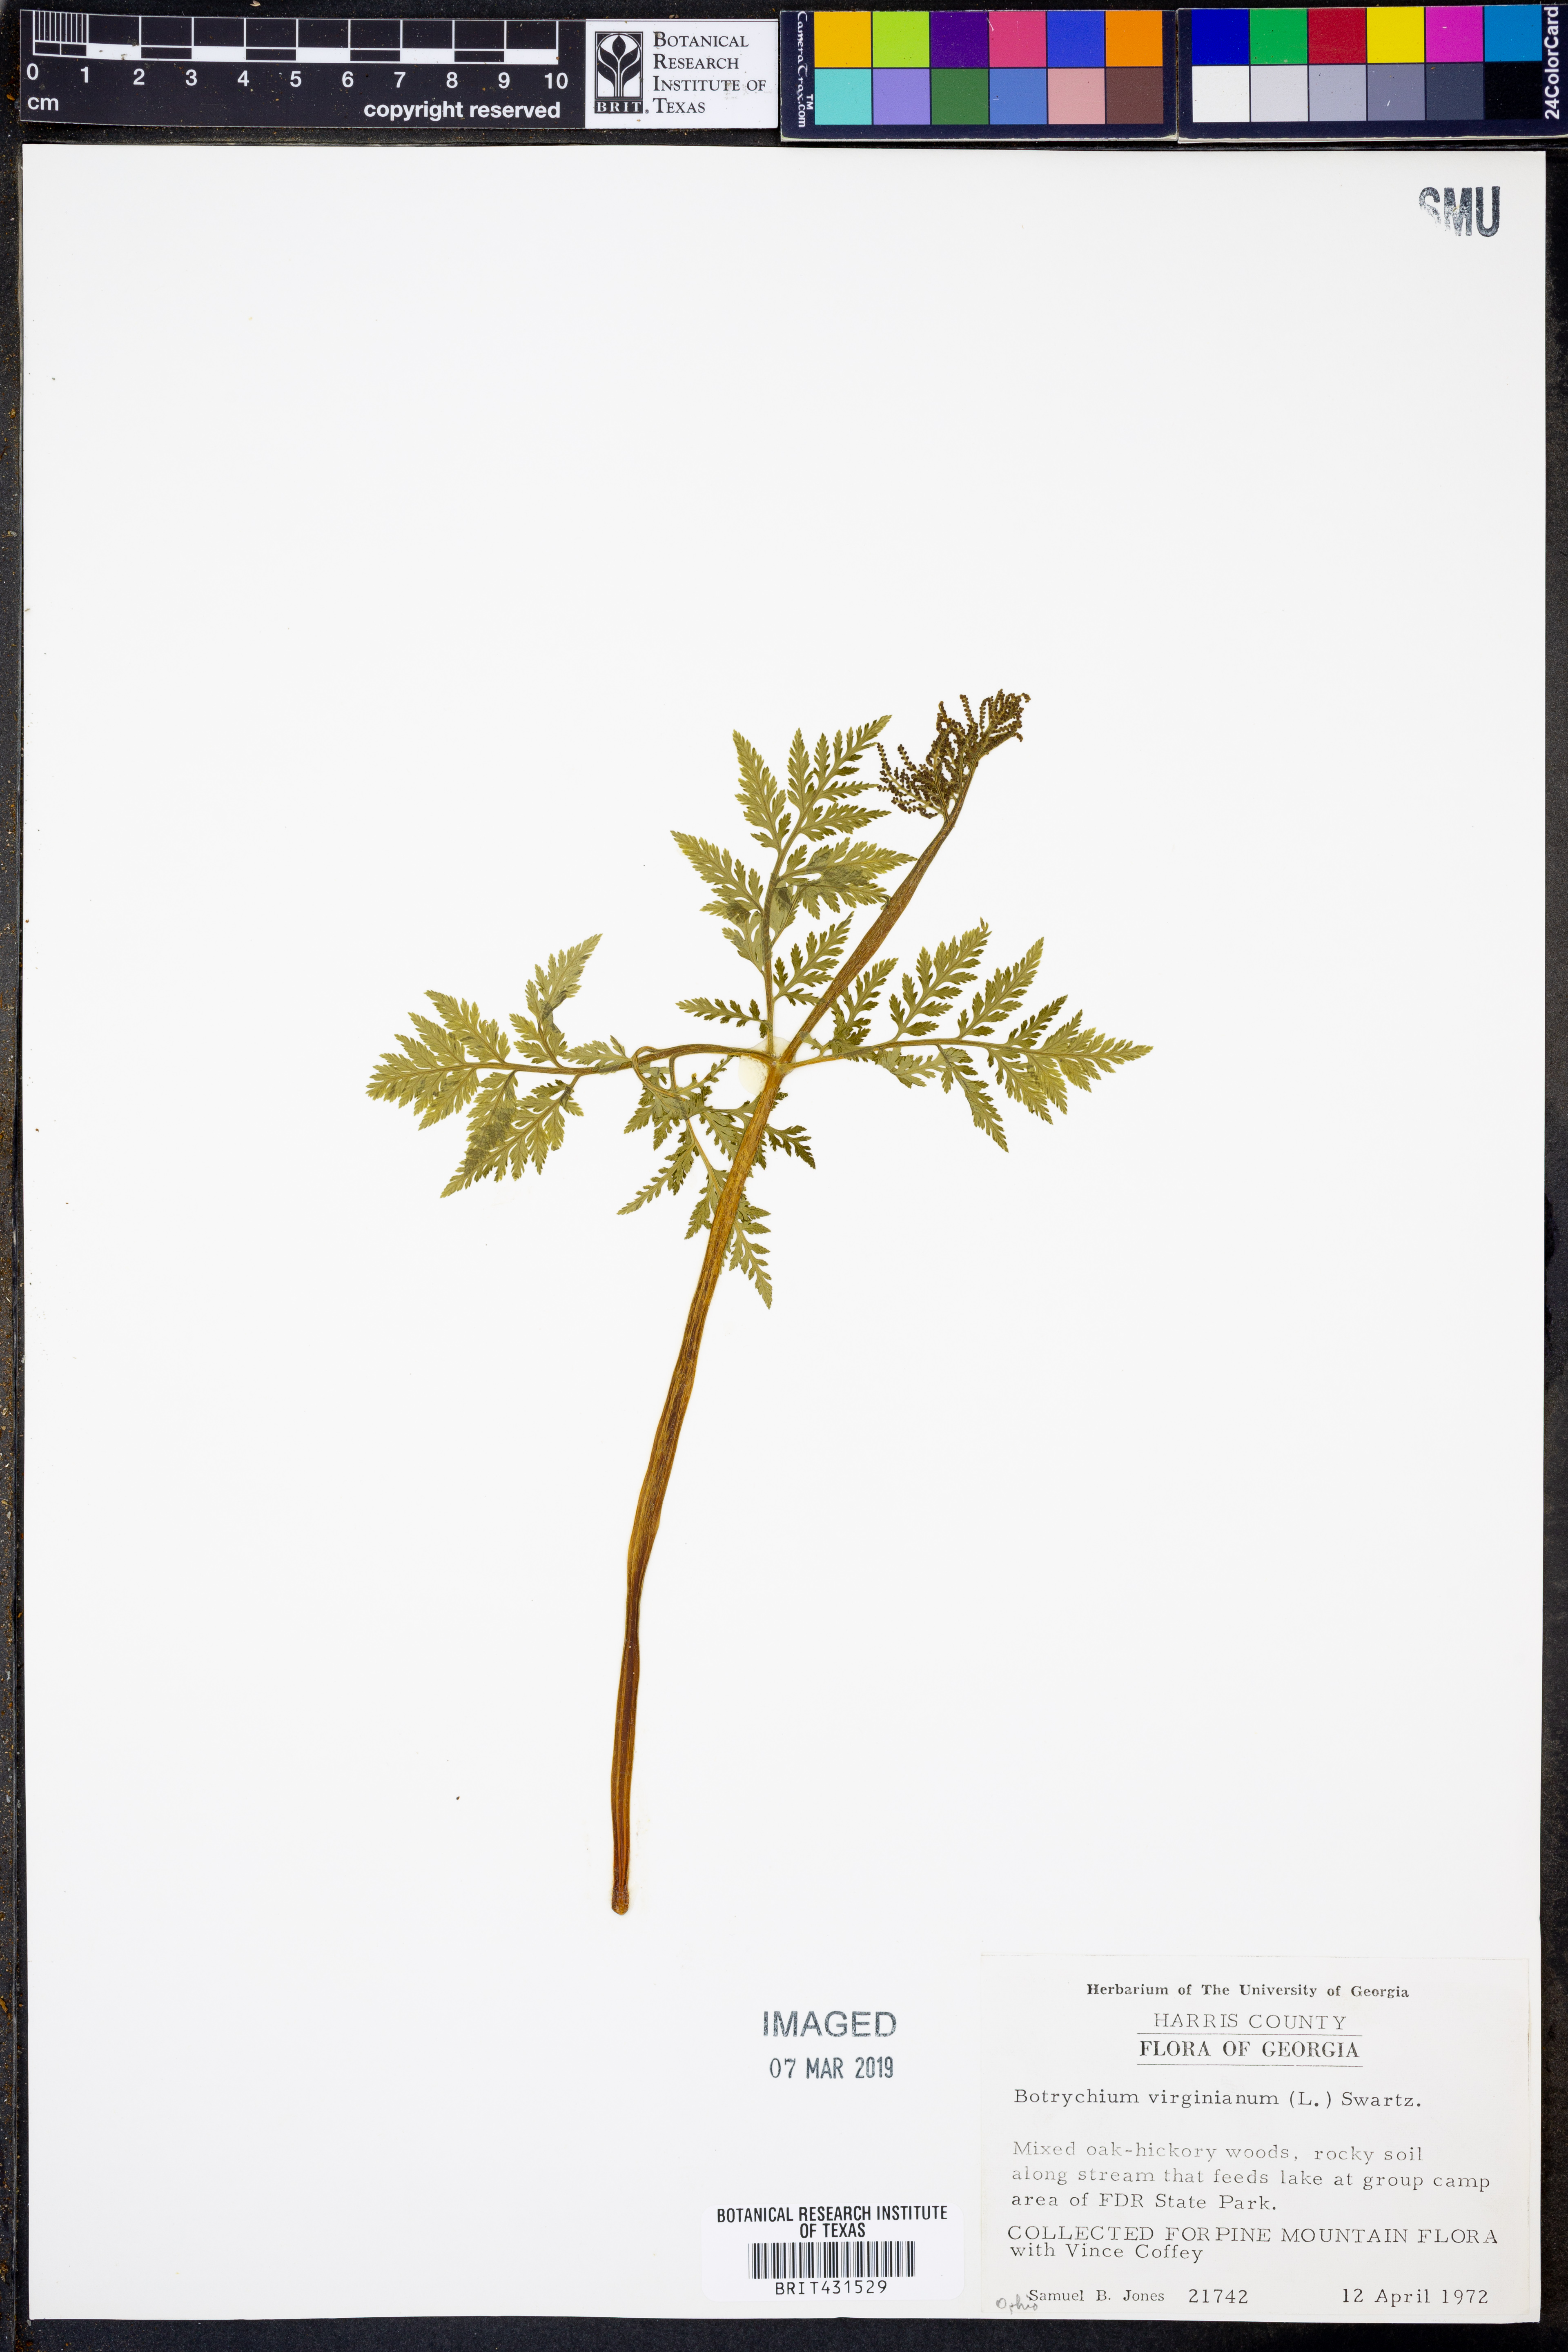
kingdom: Plantae
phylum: Tracheophyta
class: Polypodiopsida
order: Ophioglossales
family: Ophioglossaceae
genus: Botrypus
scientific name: Botrypus virginianus
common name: Common grapefern
